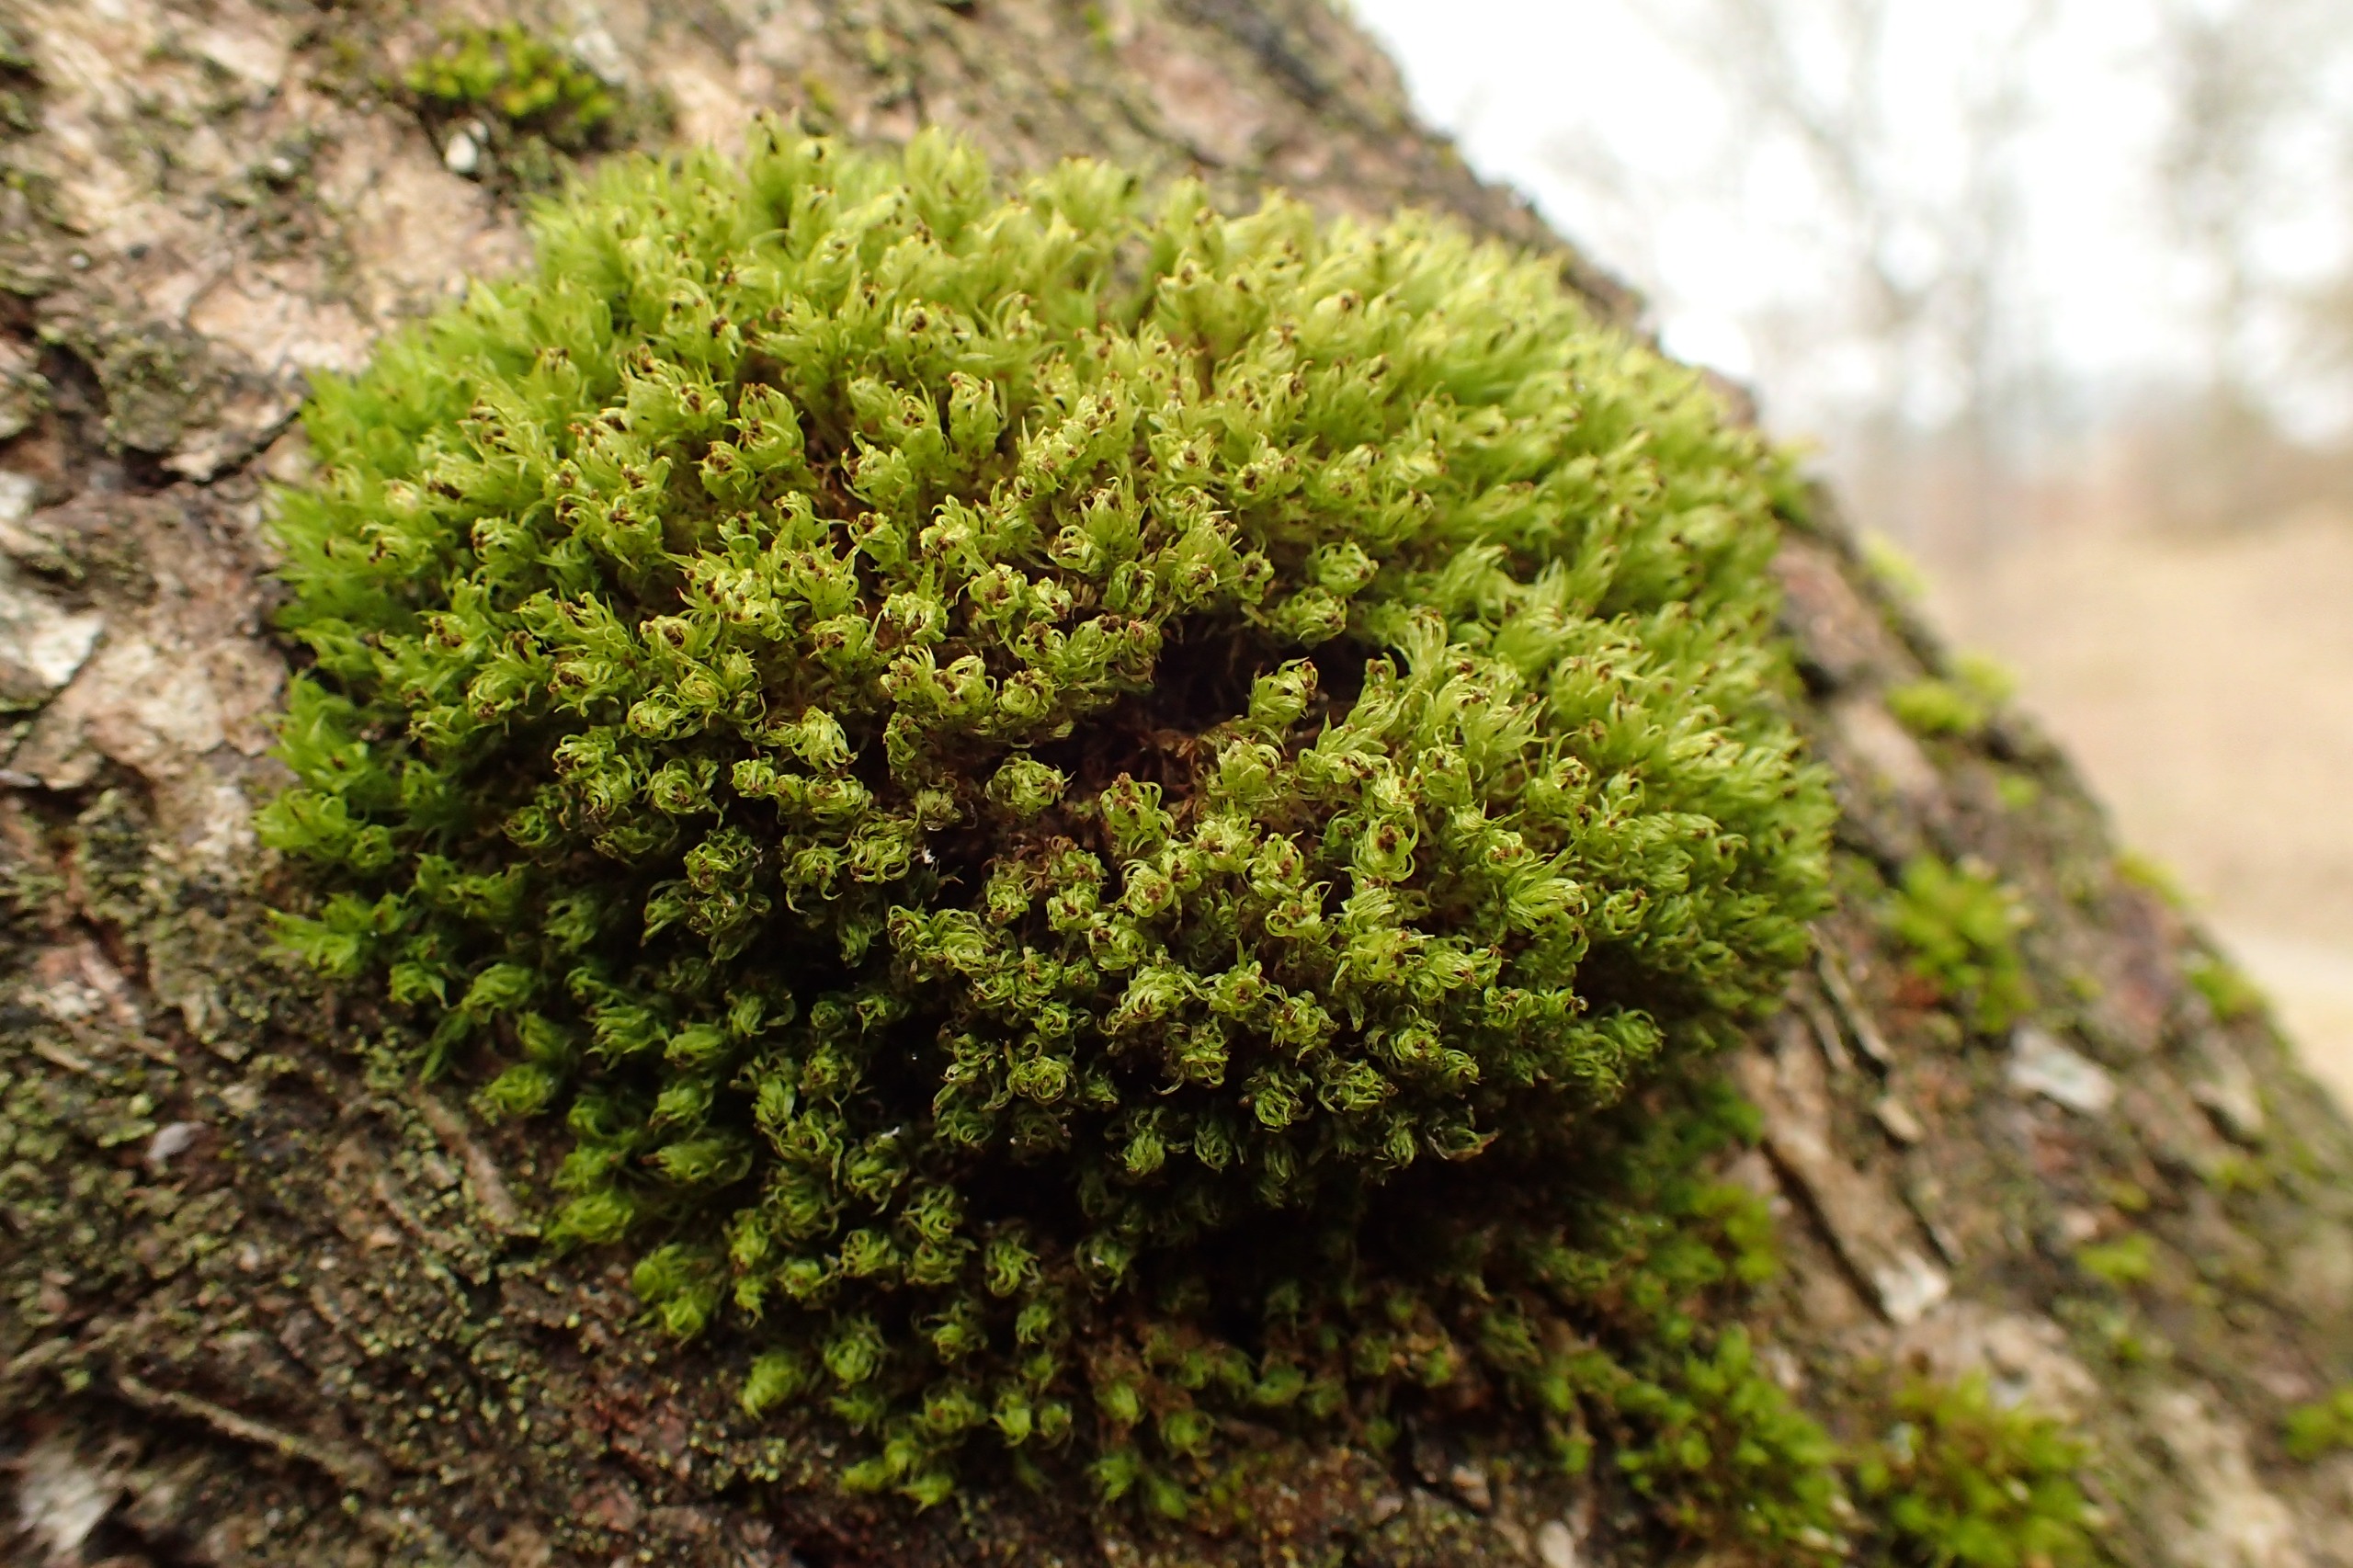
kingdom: Plantae
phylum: Bryophyta
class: Bryopsida
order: Orthotrichales
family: Orthotrichaceae
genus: Plenogemma
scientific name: Plenogemma phyllantha
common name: Stor låddenhætte
